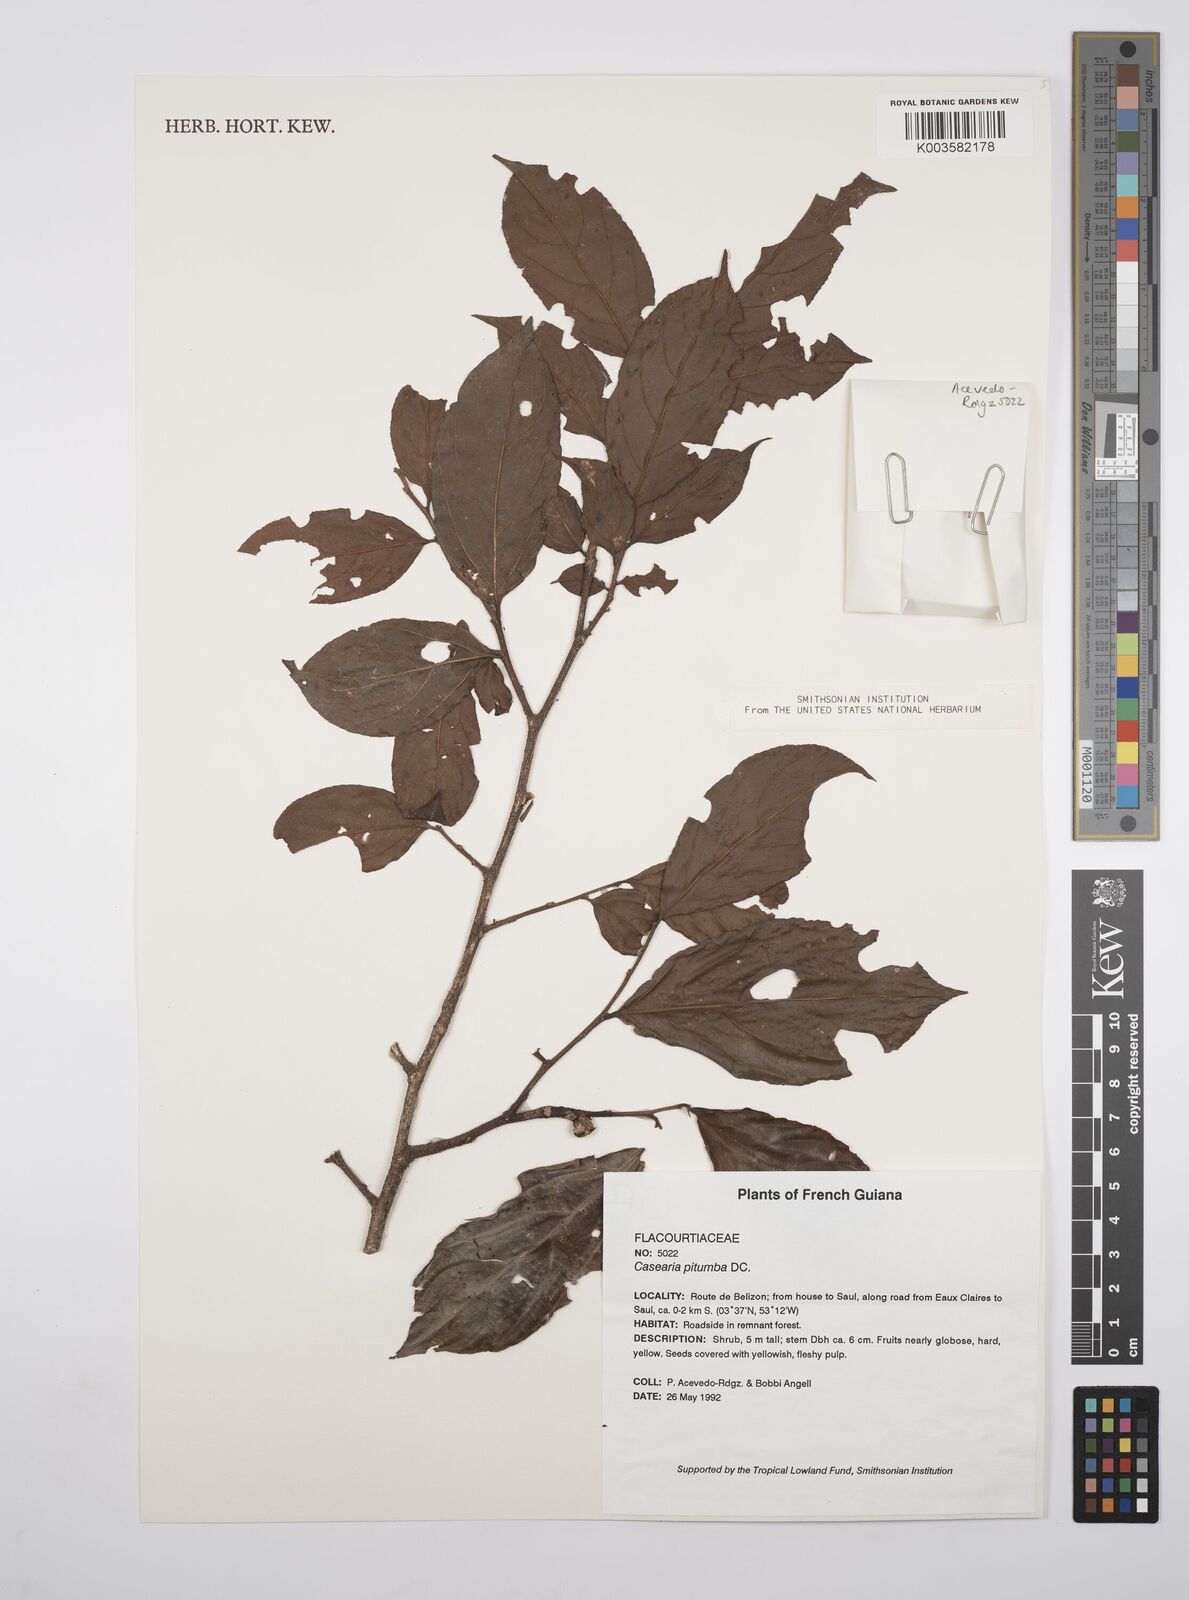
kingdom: Plantae
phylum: Tracheophyta
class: Magnoliopsida
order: Malpighiales
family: Salicaceae
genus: Casearia
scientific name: Casearia pitumba
